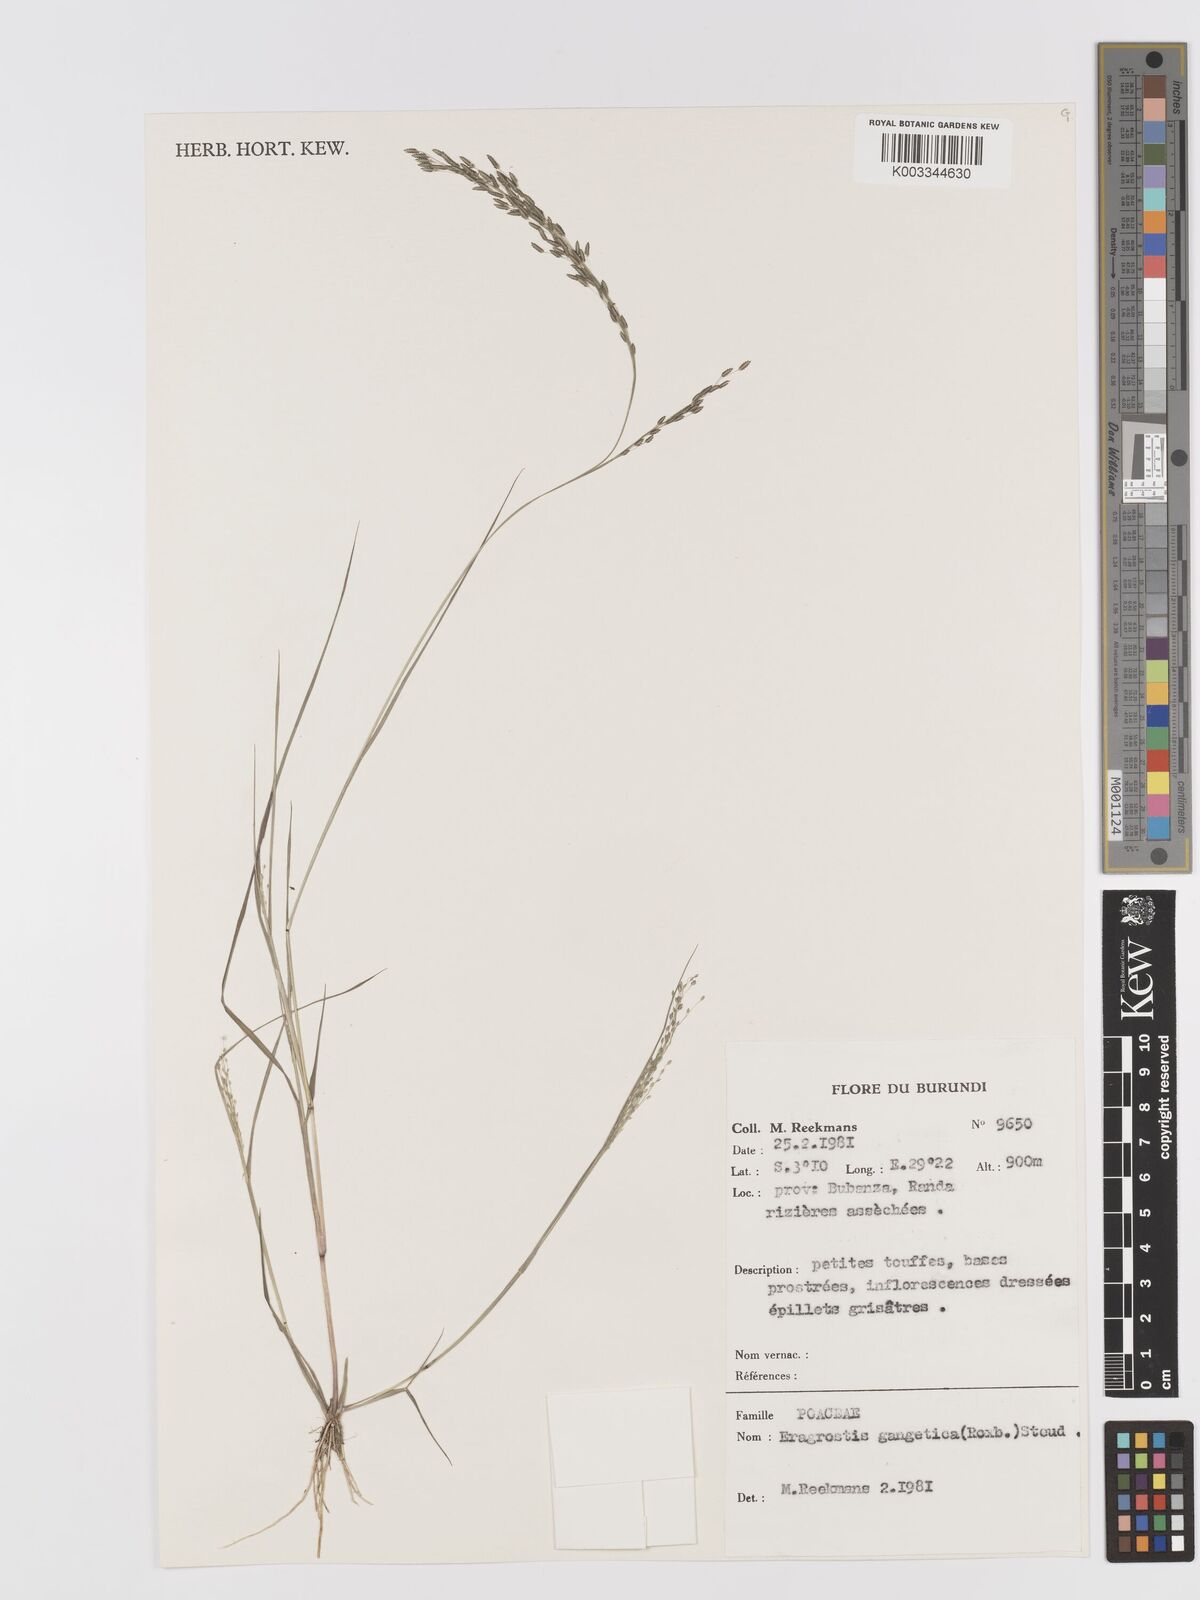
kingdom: Plantae
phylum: Tracheophyta
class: Liliopsida
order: Poales
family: Poaceae
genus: Eragrostis
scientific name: Eragrostis gangetica
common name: Slimflower lovegrass
